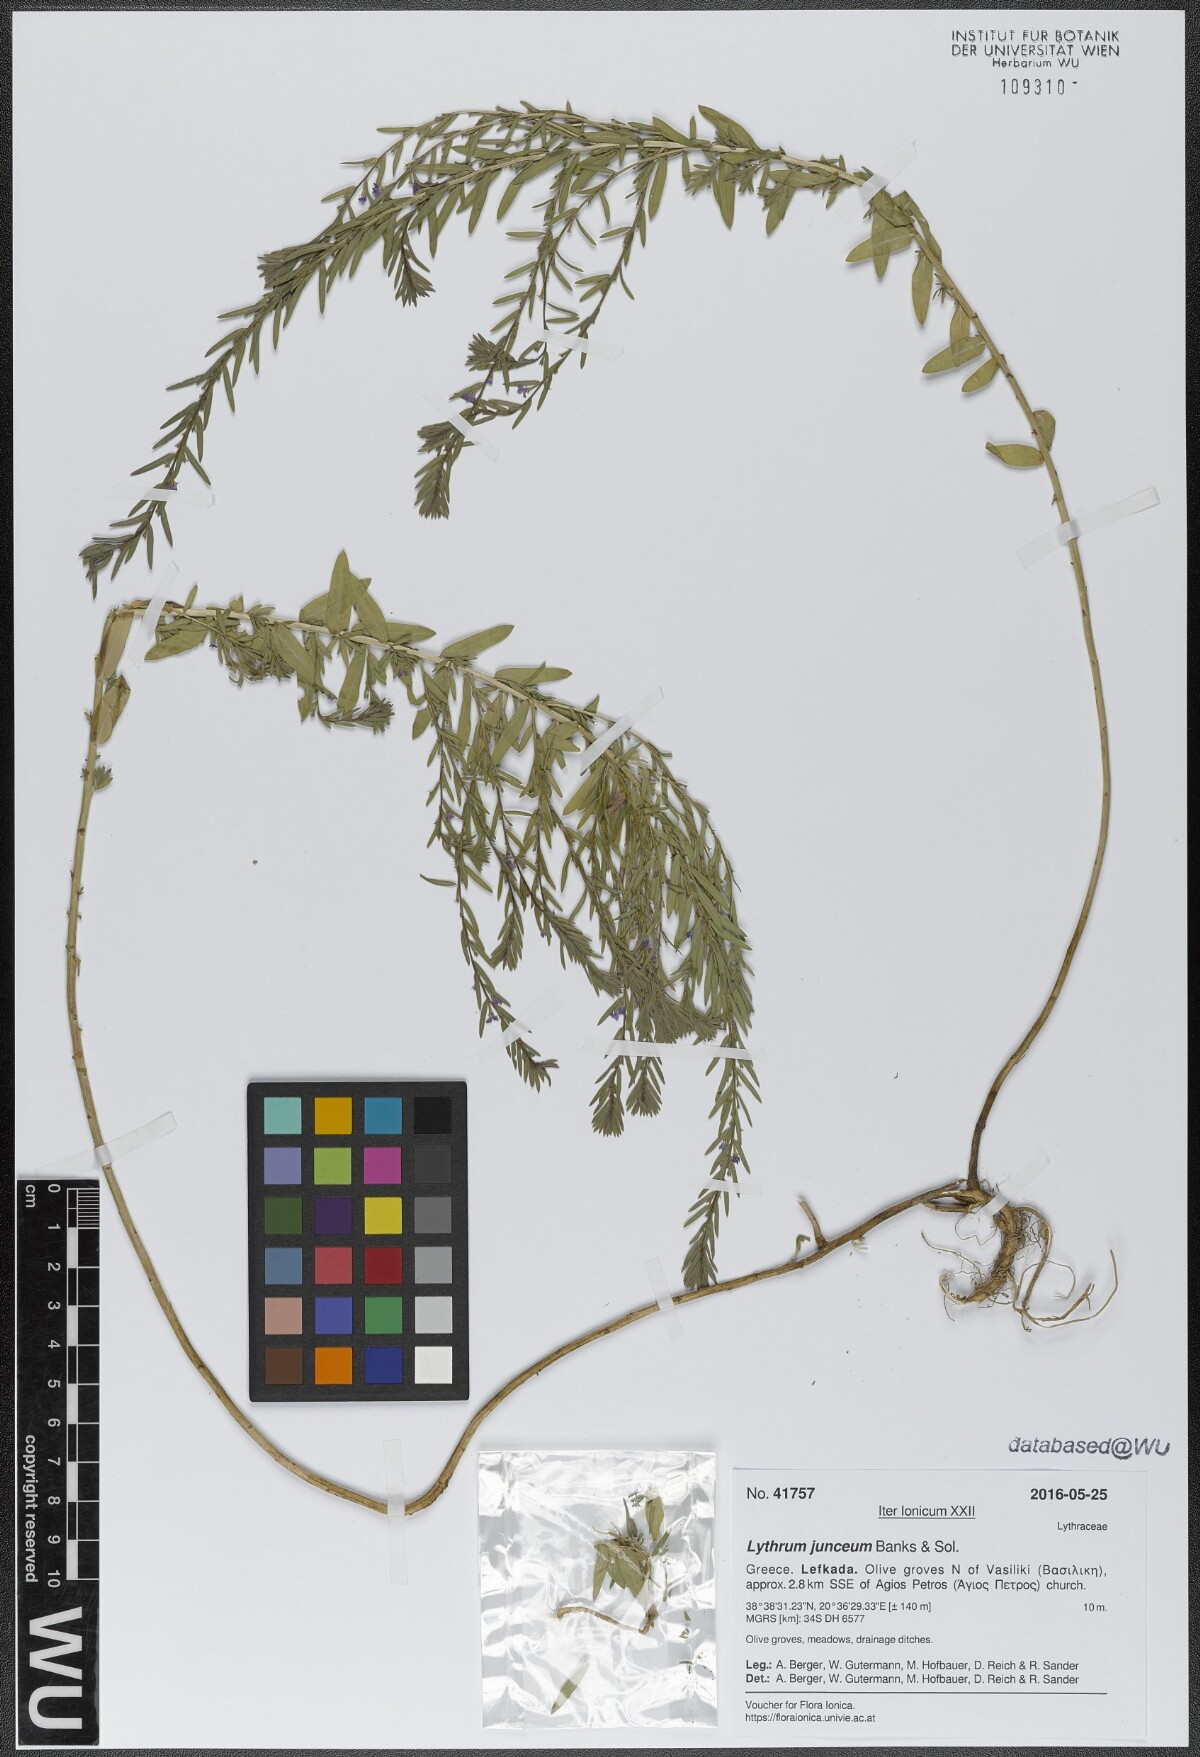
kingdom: Plantae
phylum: Tracheophyta
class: Magnoliopsida
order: Myrtales
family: Lythraceae
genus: Lythrum
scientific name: Lythrum junceum
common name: False grass-poly
